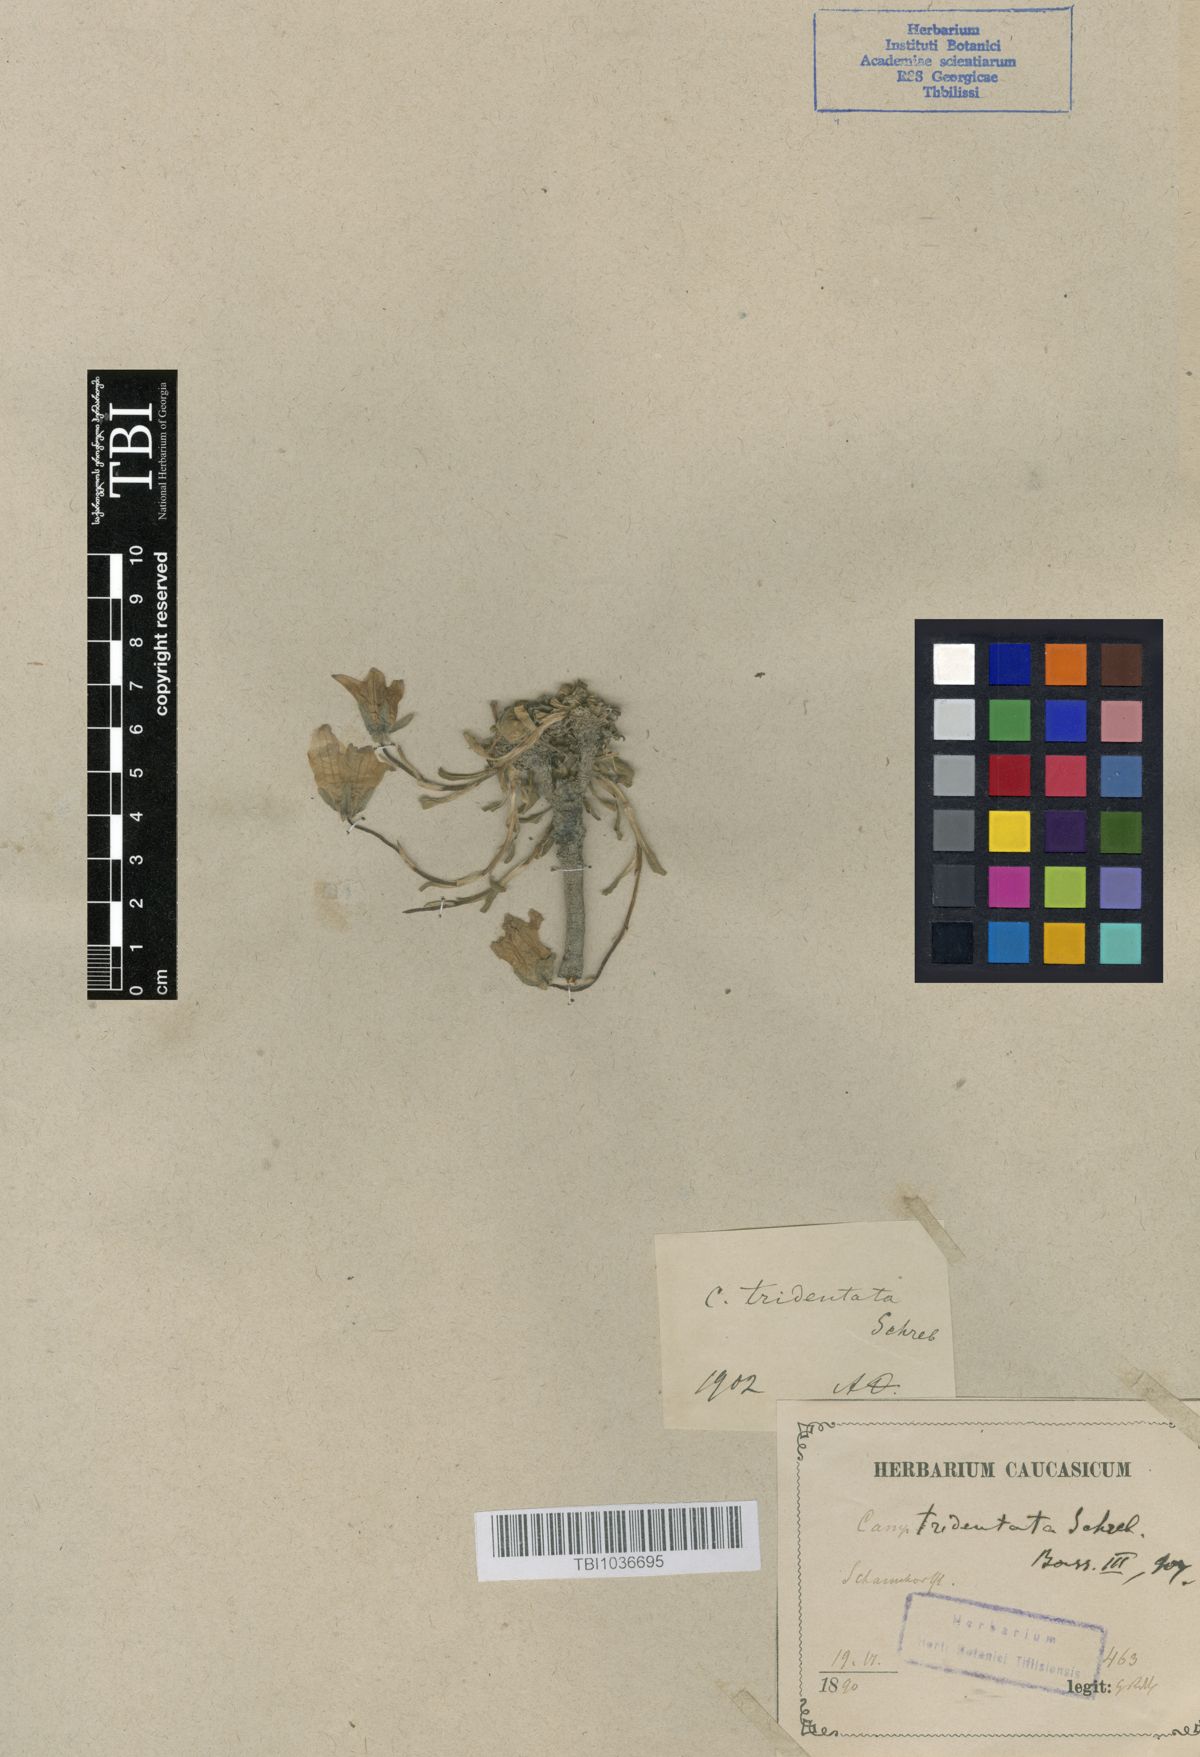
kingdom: Plantae
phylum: Tracheophyta
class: Magnoliopsida
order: Asterales
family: Campanulaceae
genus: Campanula
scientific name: Campanula tridentata
